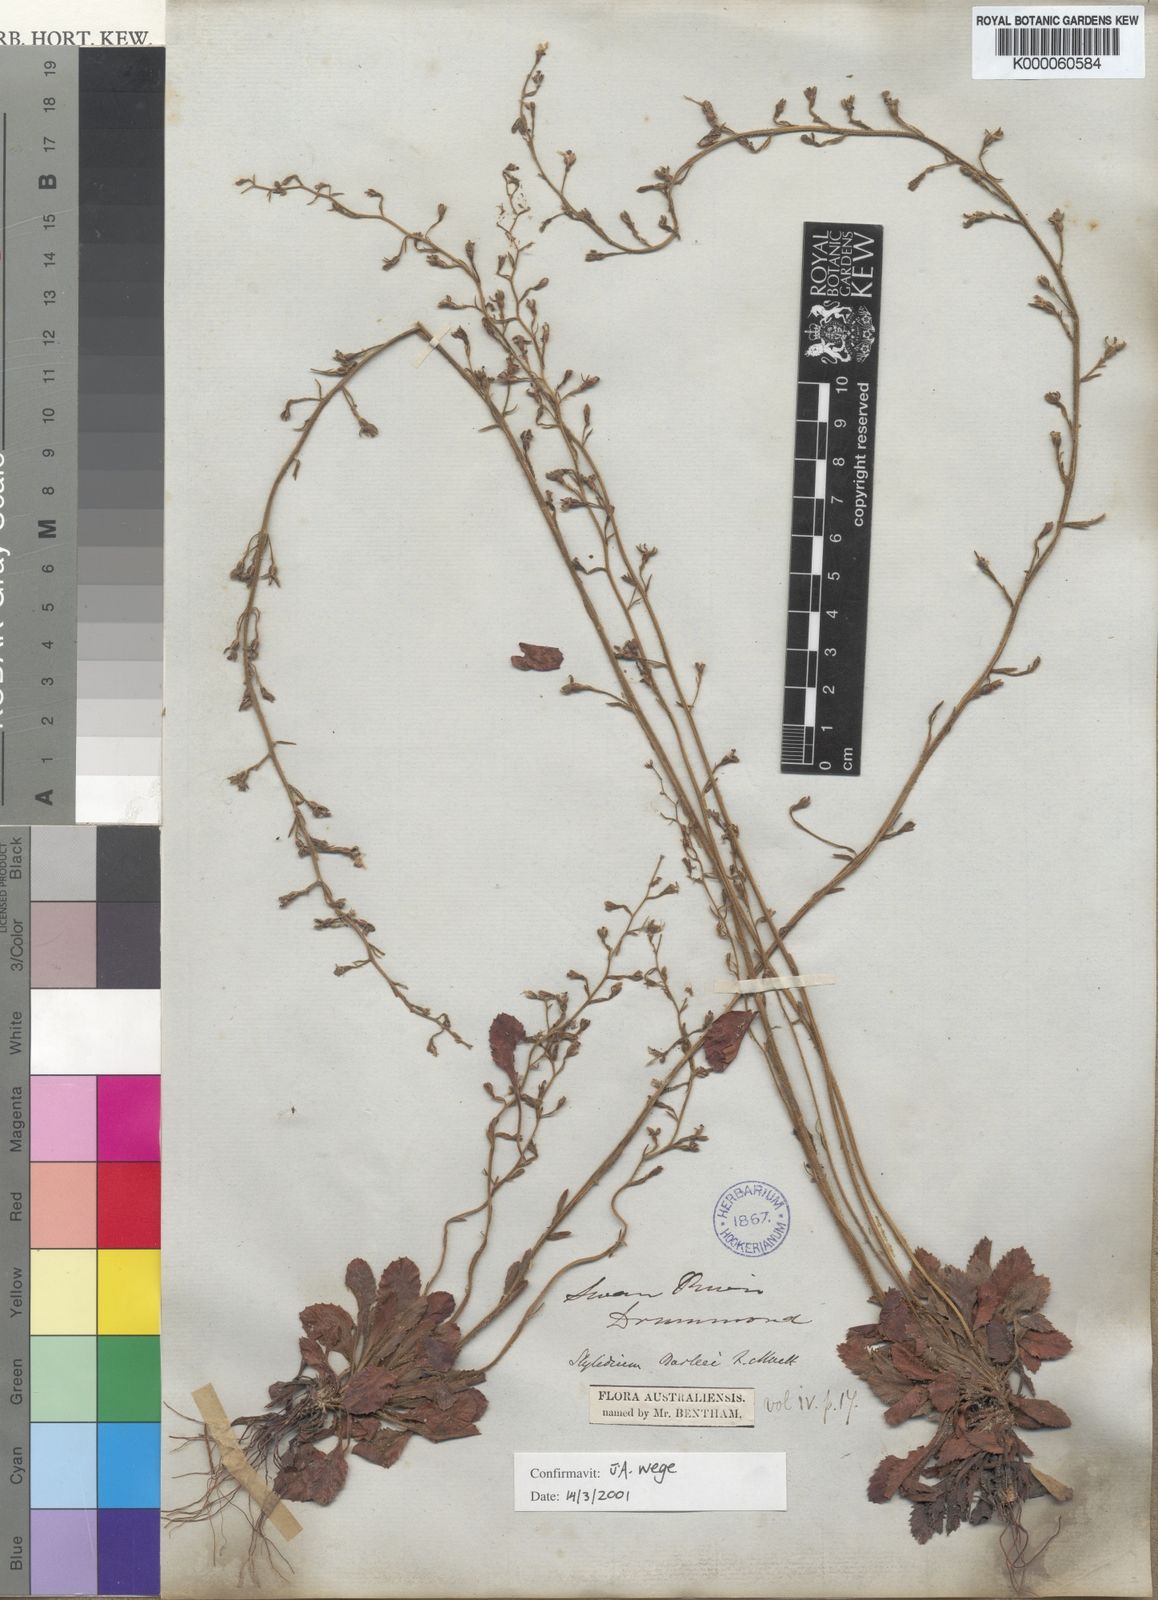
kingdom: Plantae
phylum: Tracheophyta
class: Magnoliopsida
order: Asterales
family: Stylidiaceae
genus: Stylidium
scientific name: Stylidium barleei
